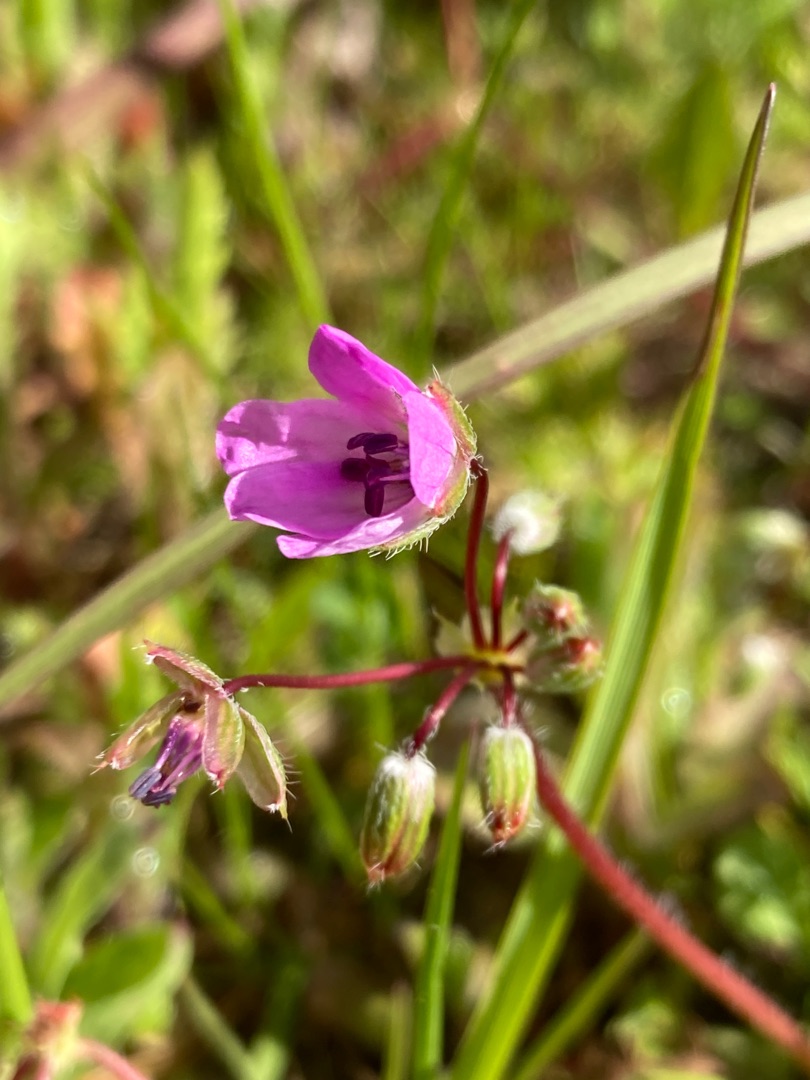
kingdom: Plantae
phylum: Tracheophyta
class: Magnoliopsida
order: Geraniales
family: Geraniaceae
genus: Erodium
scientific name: Erodium cicutarium
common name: Hejrenæb
